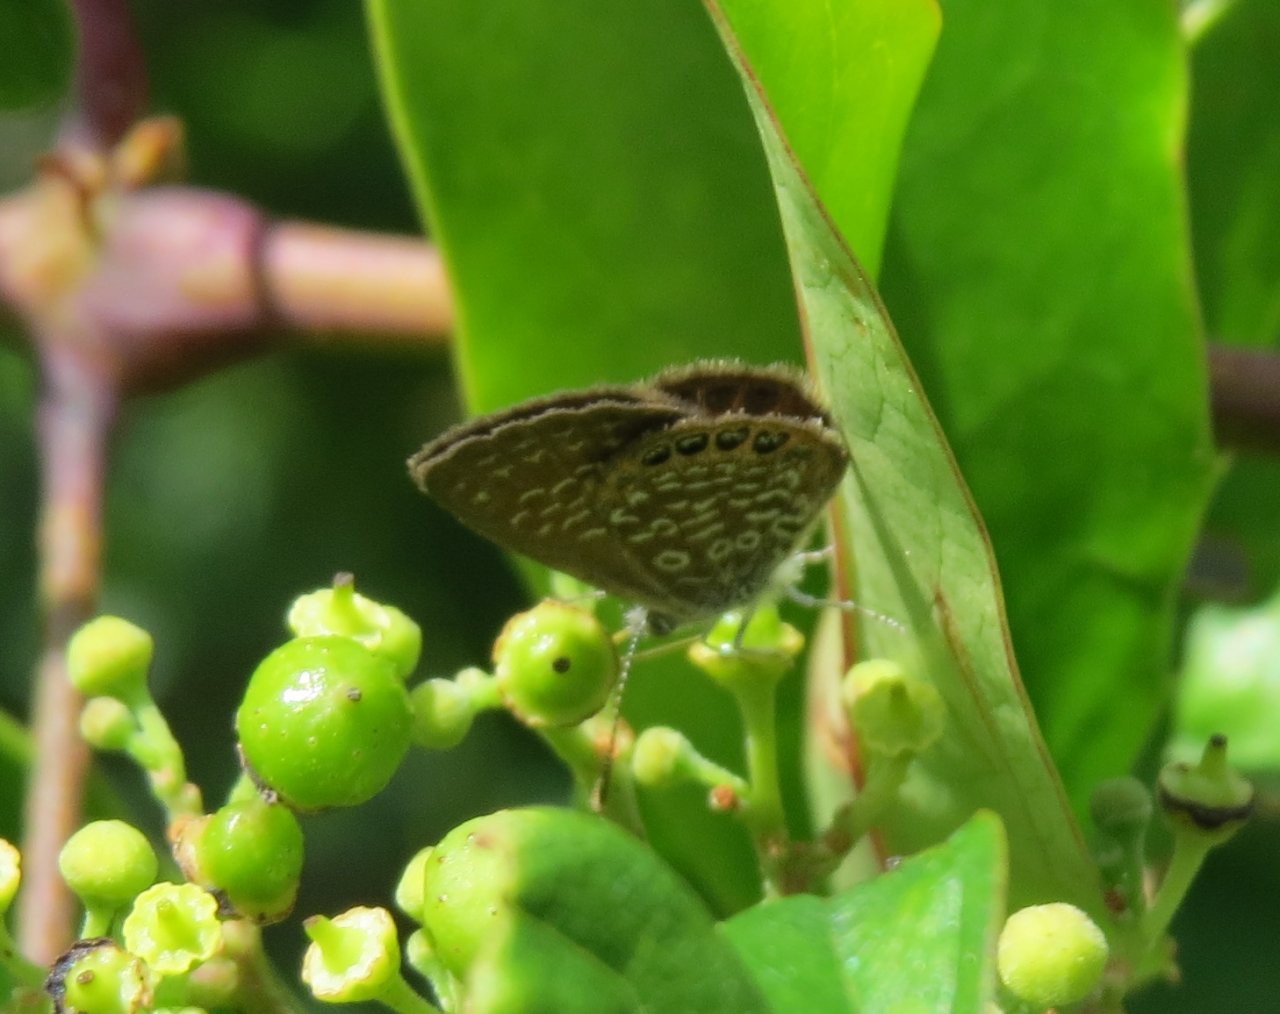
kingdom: Animalia
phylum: Arthropoda
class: Insecta
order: Lepidoptera
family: Lycaenidae
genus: Brephidium
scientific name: Brephidium isophthalma
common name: Eastern Pygmy-Blue
